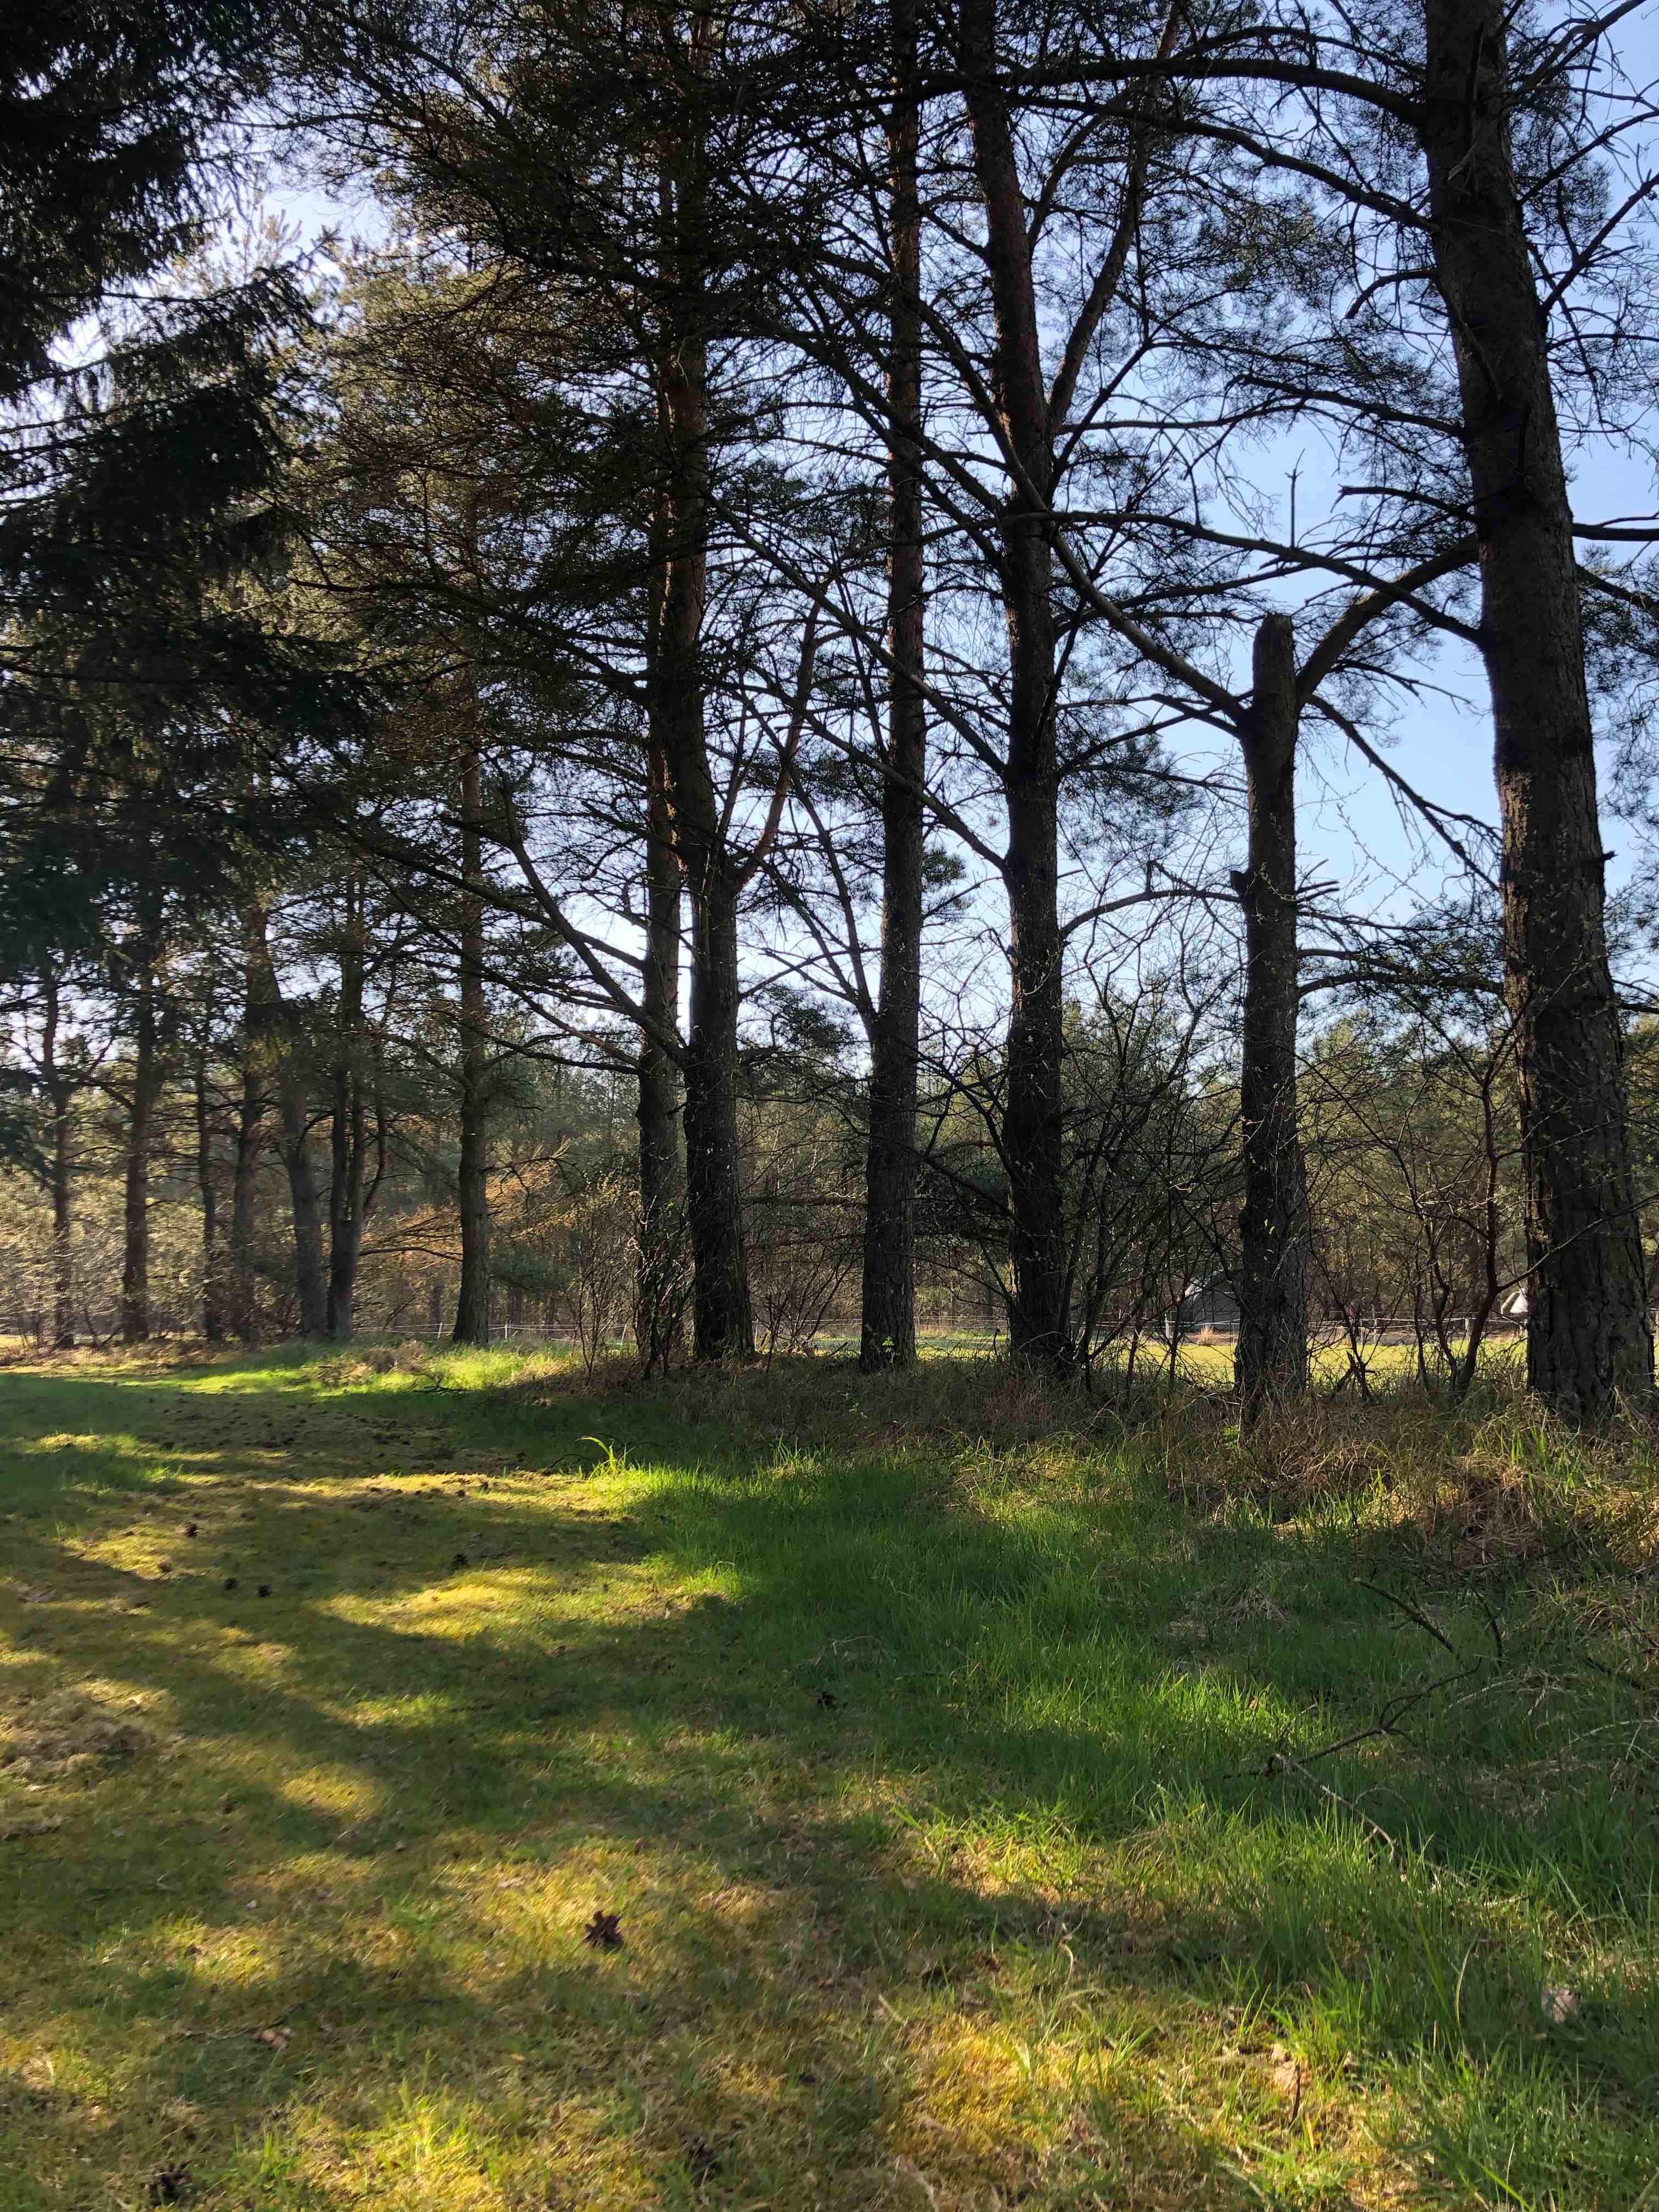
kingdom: Fungi
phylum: Basidiomycota
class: Agaricomycetes
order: Agaricales
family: Physalacriaceae
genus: Strobilurus
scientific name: Strobilurus
